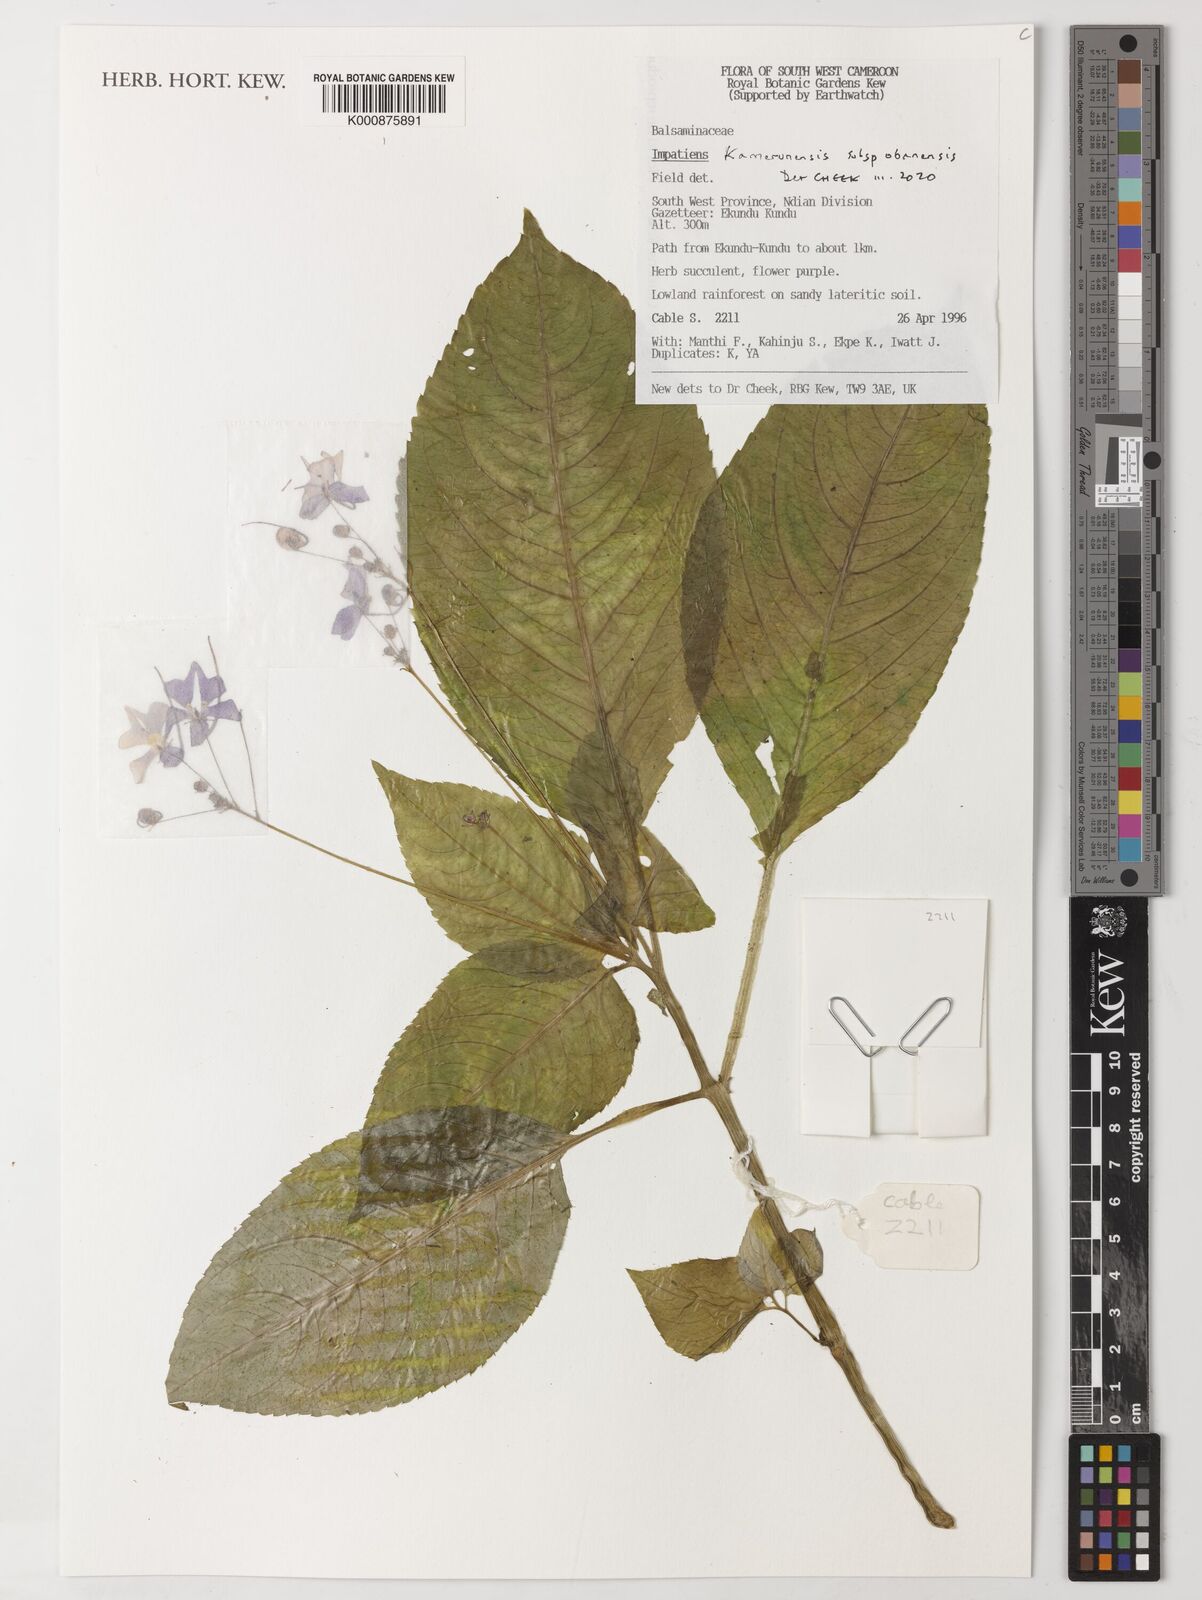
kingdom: Plantae
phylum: Tracheophyta
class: Magnoliopsida
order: Ericales
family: Balsaminaceae
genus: Impatiens
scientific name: Impatiens kamerunensis
